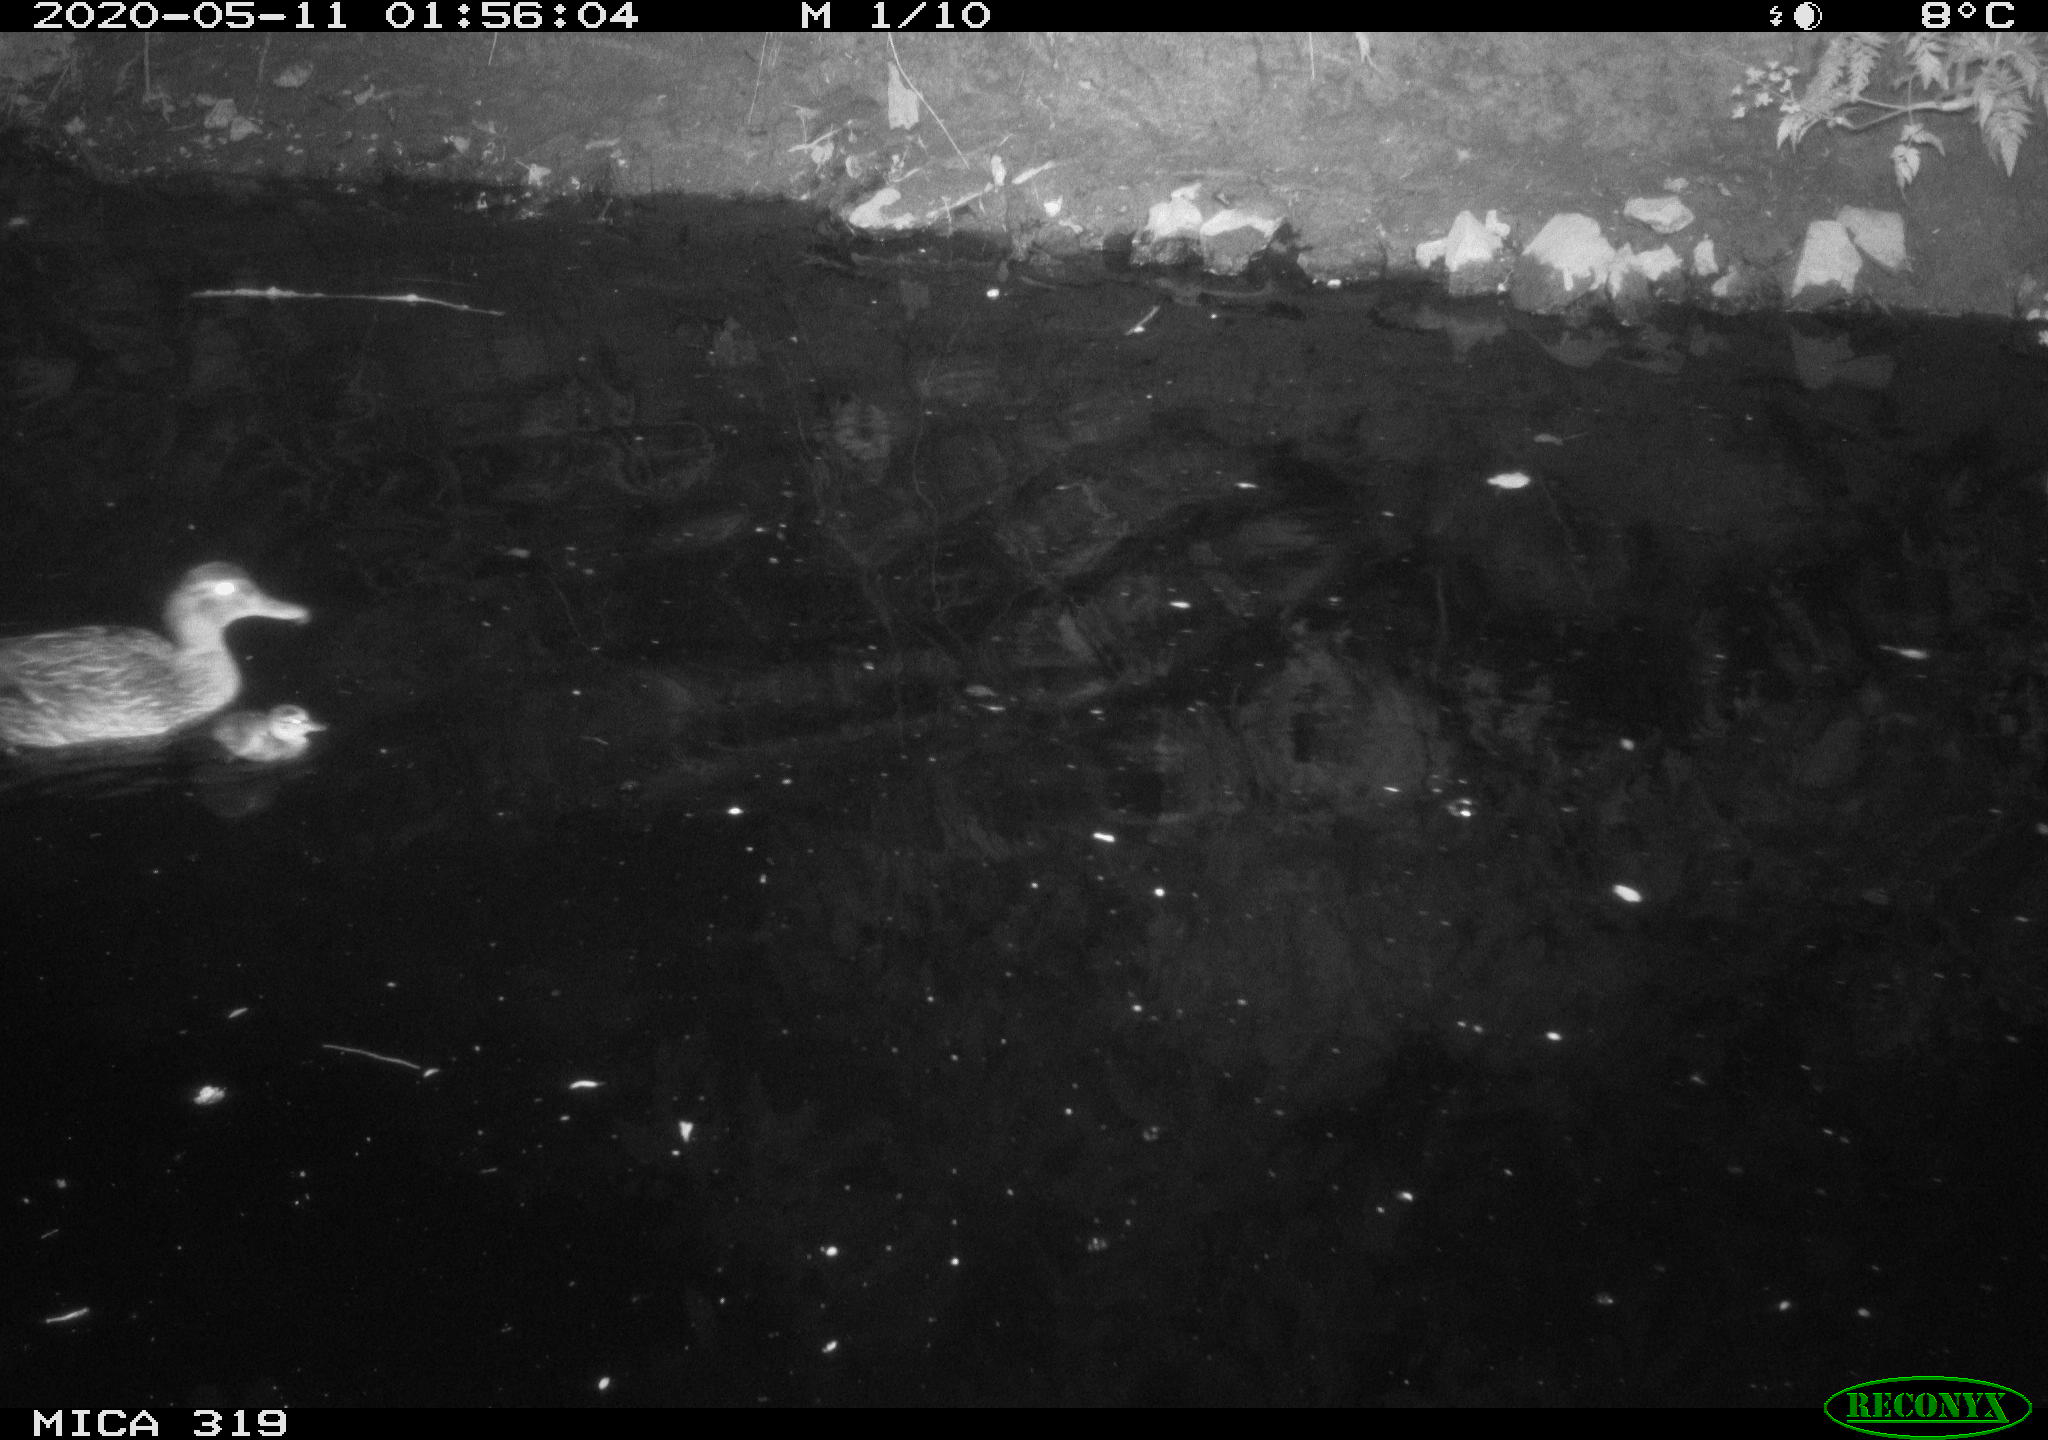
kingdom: Animalia
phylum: Chordata
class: Aves
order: Anseriformes
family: Anatidae
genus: Anas
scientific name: Anas platyrhynchos
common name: Mallard
